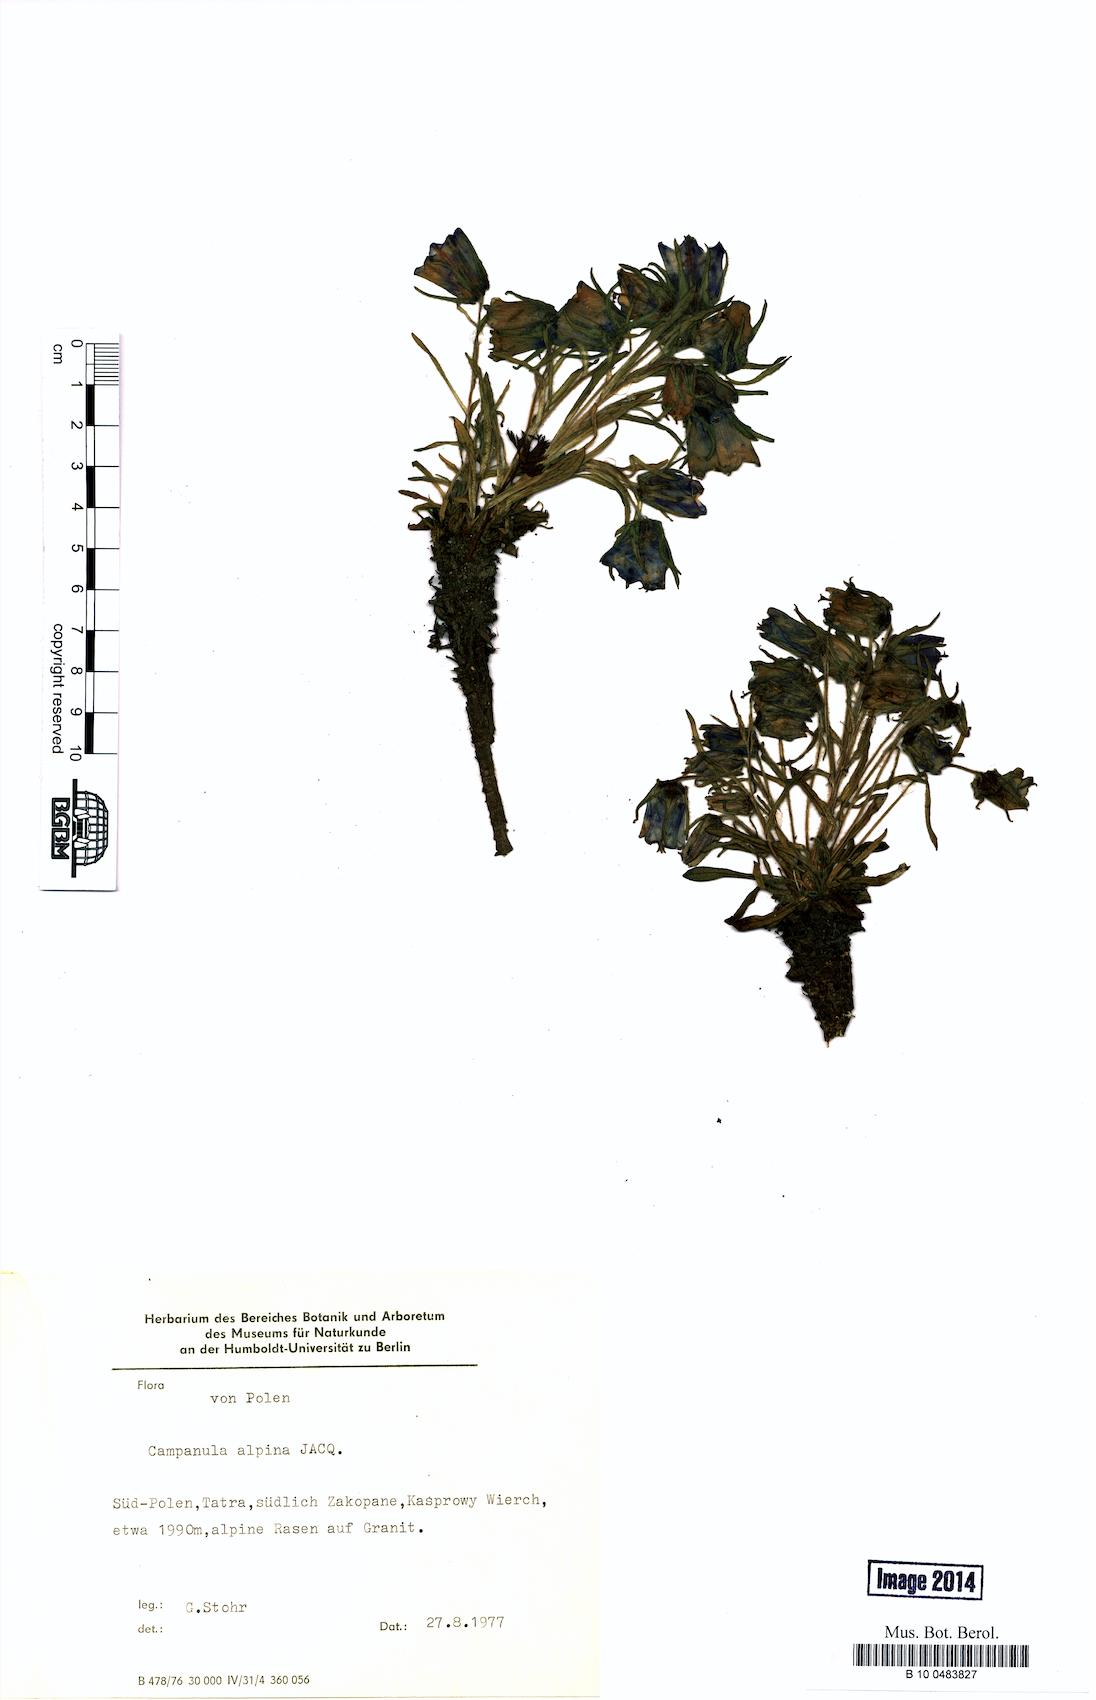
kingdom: Plantae
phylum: Tracheophyta
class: Magnoliopsida
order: Asterales
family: Campanulaceae
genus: Campanula
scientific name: Campanula alpina
